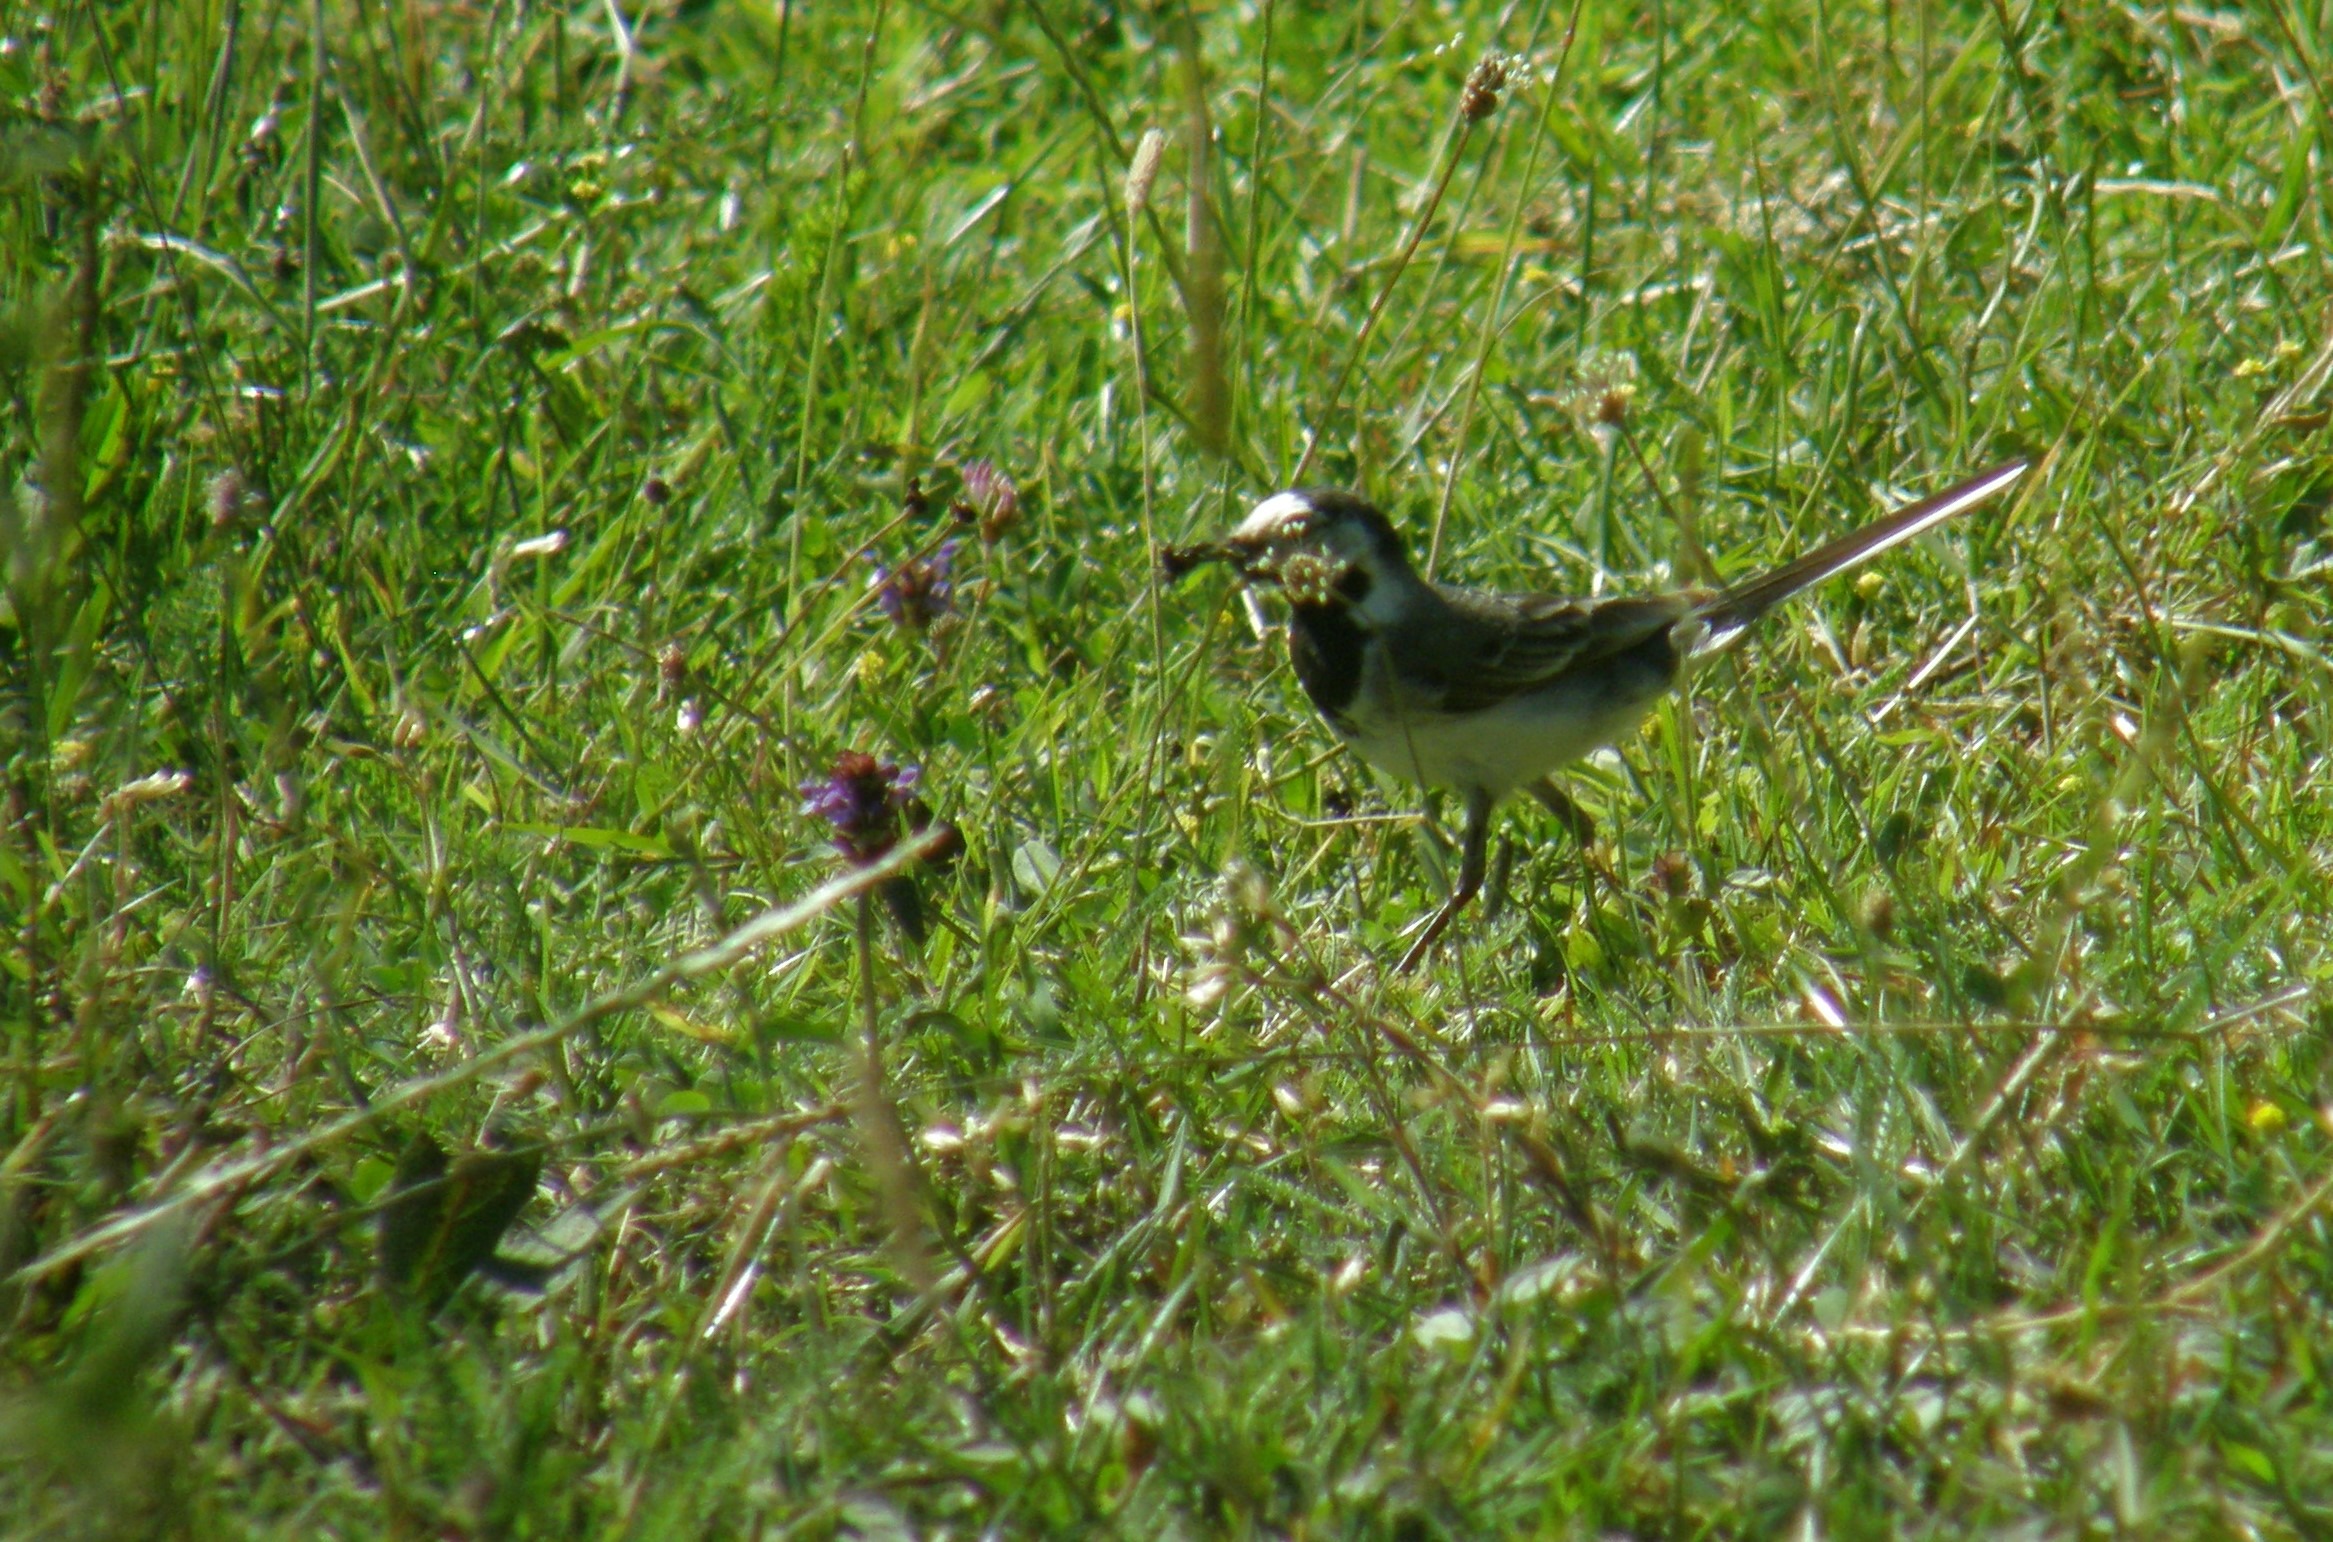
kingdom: Animalia
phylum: Chordata
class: Aves
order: Passeriformes
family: Motacillidae
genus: Motacilla
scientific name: Motacilla alba
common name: Hvid vipstjert
